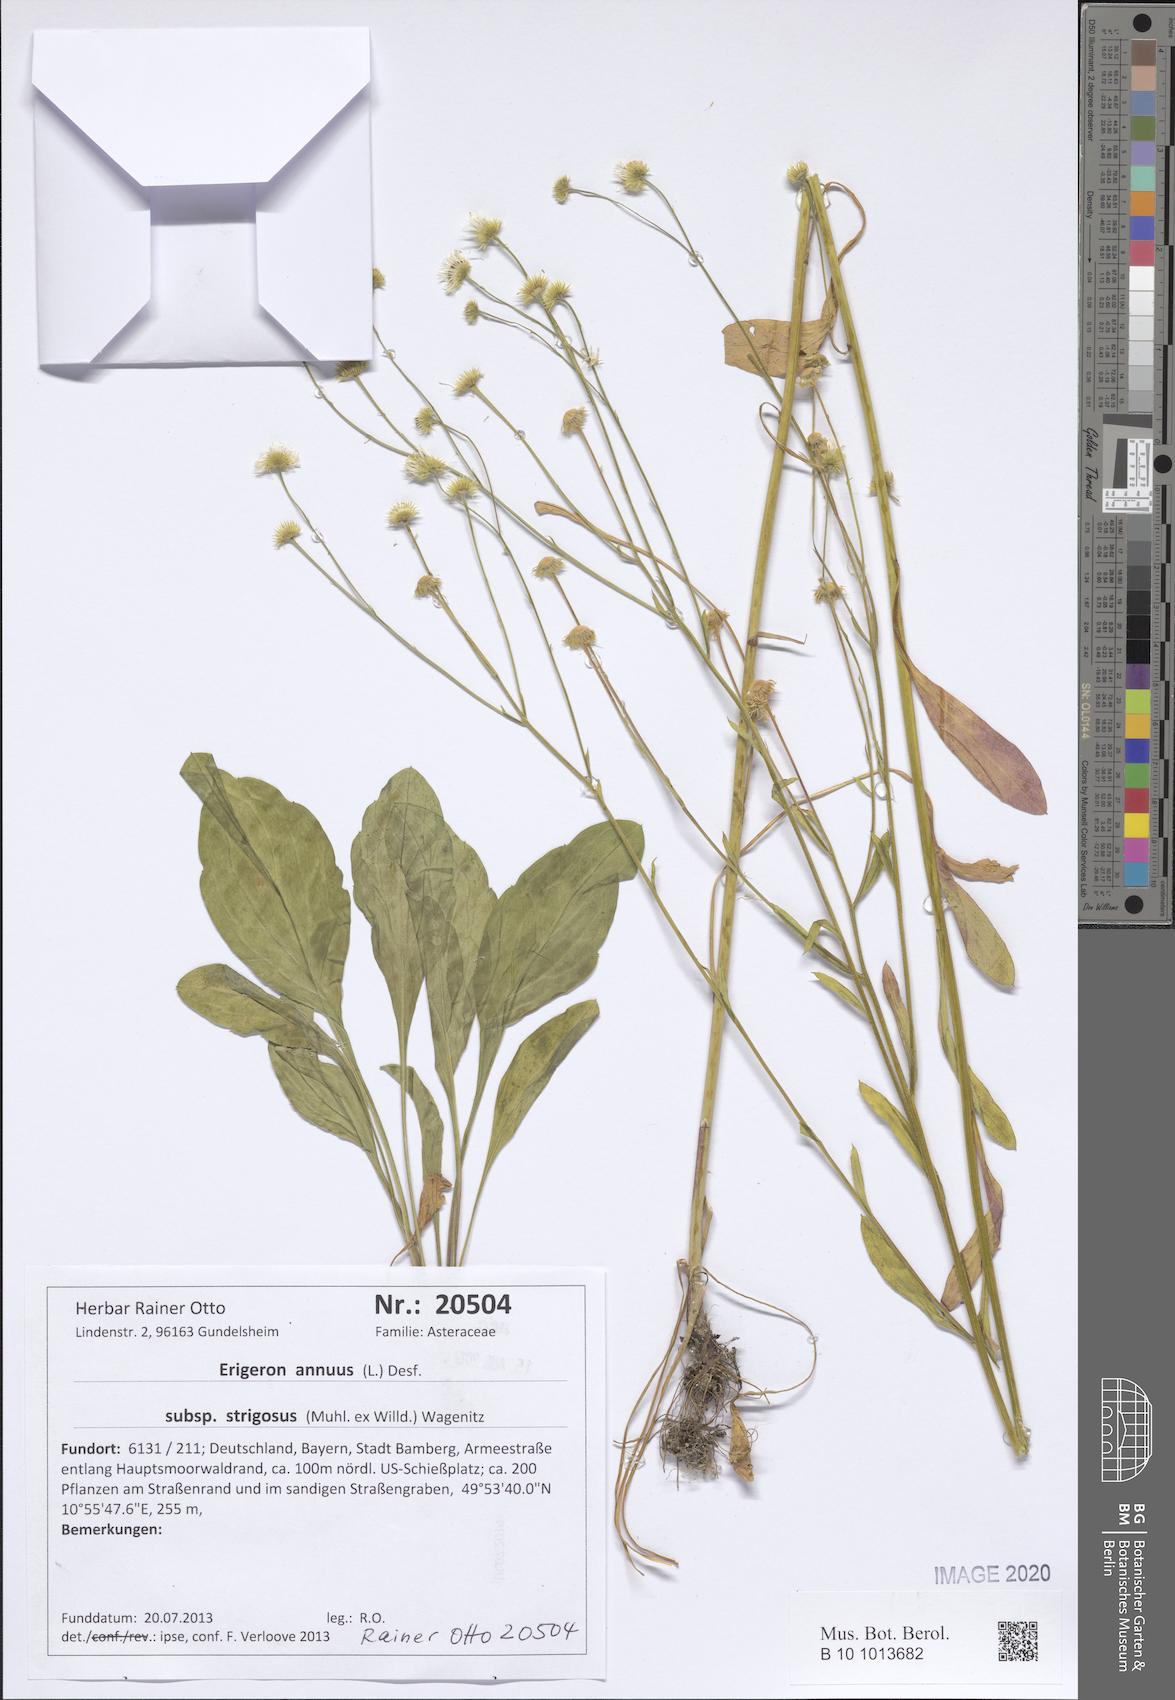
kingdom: Plantae
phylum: Tracheophyta
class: Magnoliopsida
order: Asterales
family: Asteraceae
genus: Erigeron
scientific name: Erigeron strigosus
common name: Common eastern fleabane
